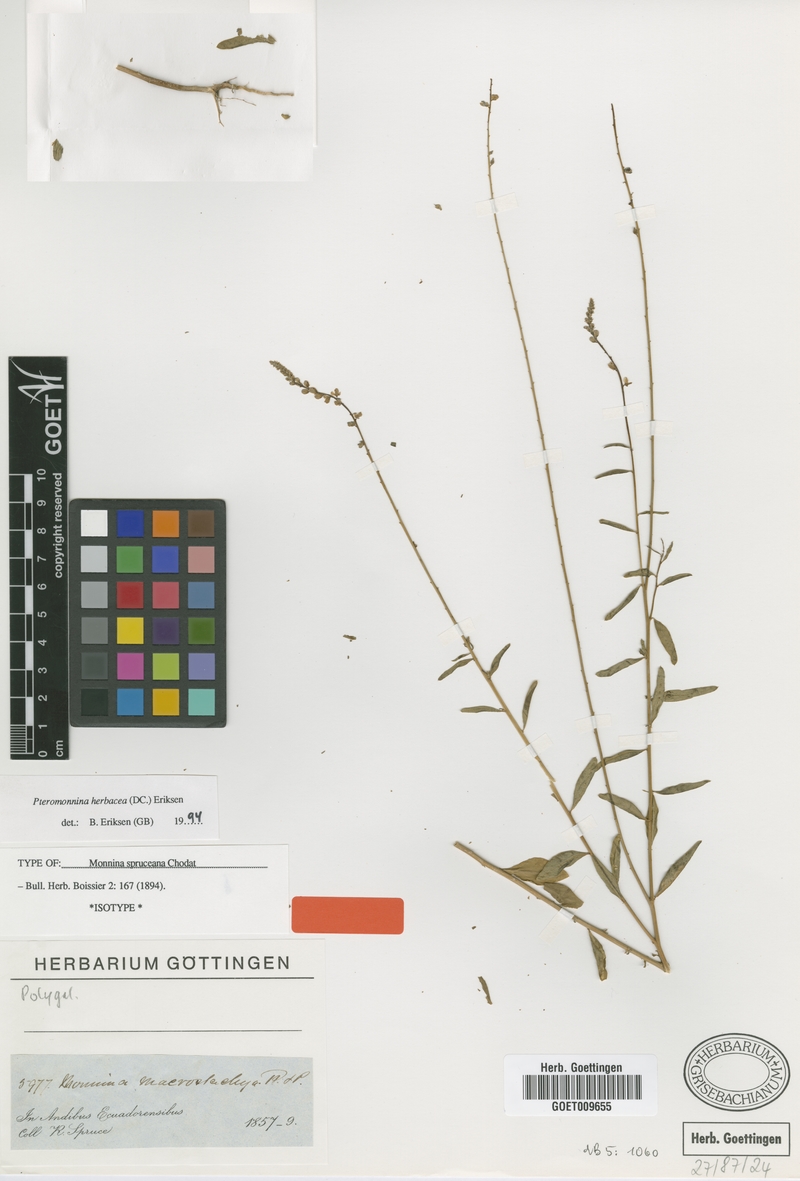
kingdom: Plantae
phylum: Tracheophyta
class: Magnoliopsida
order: Fabales
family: Polygalaceae
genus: Monnina
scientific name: Monnina herbacea
